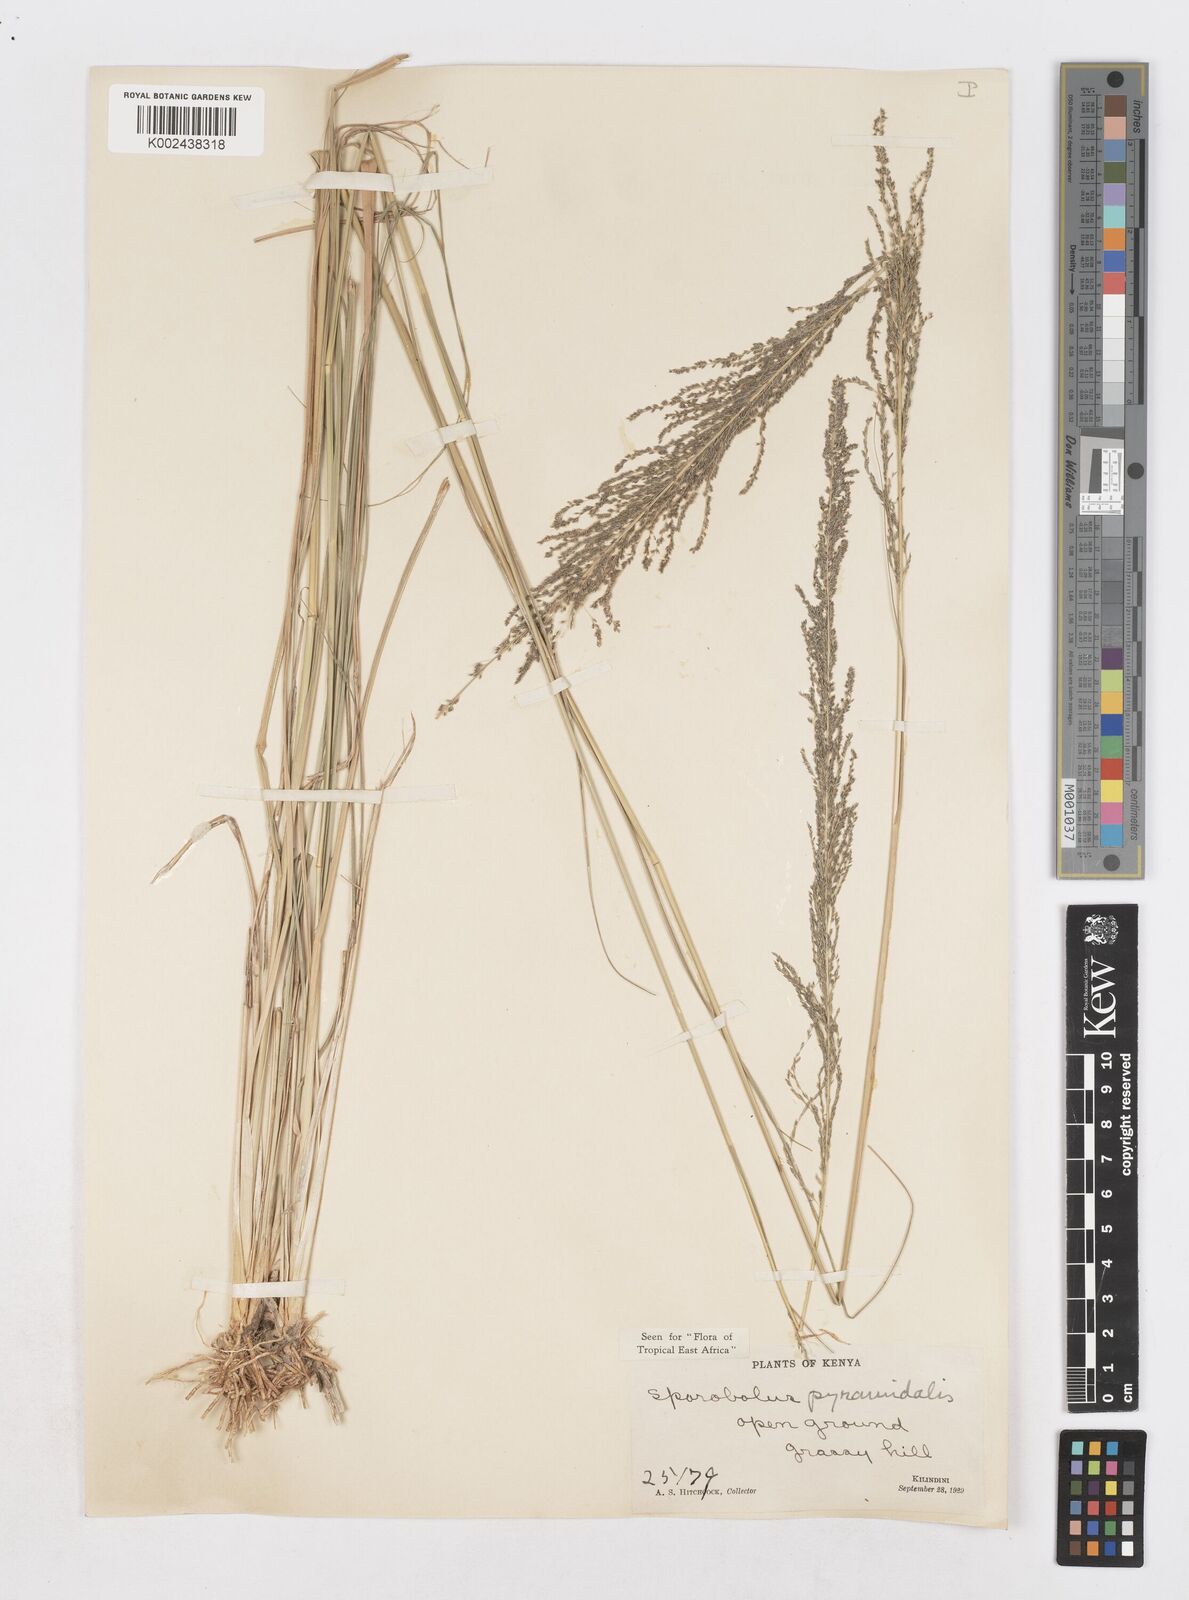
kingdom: Plantae
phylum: Tracheophyta
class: Liliopsida
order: Poales
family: Poaceae
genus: Sporobolus
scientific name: Sporobolus pyramidalis
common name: West indian dropseed
